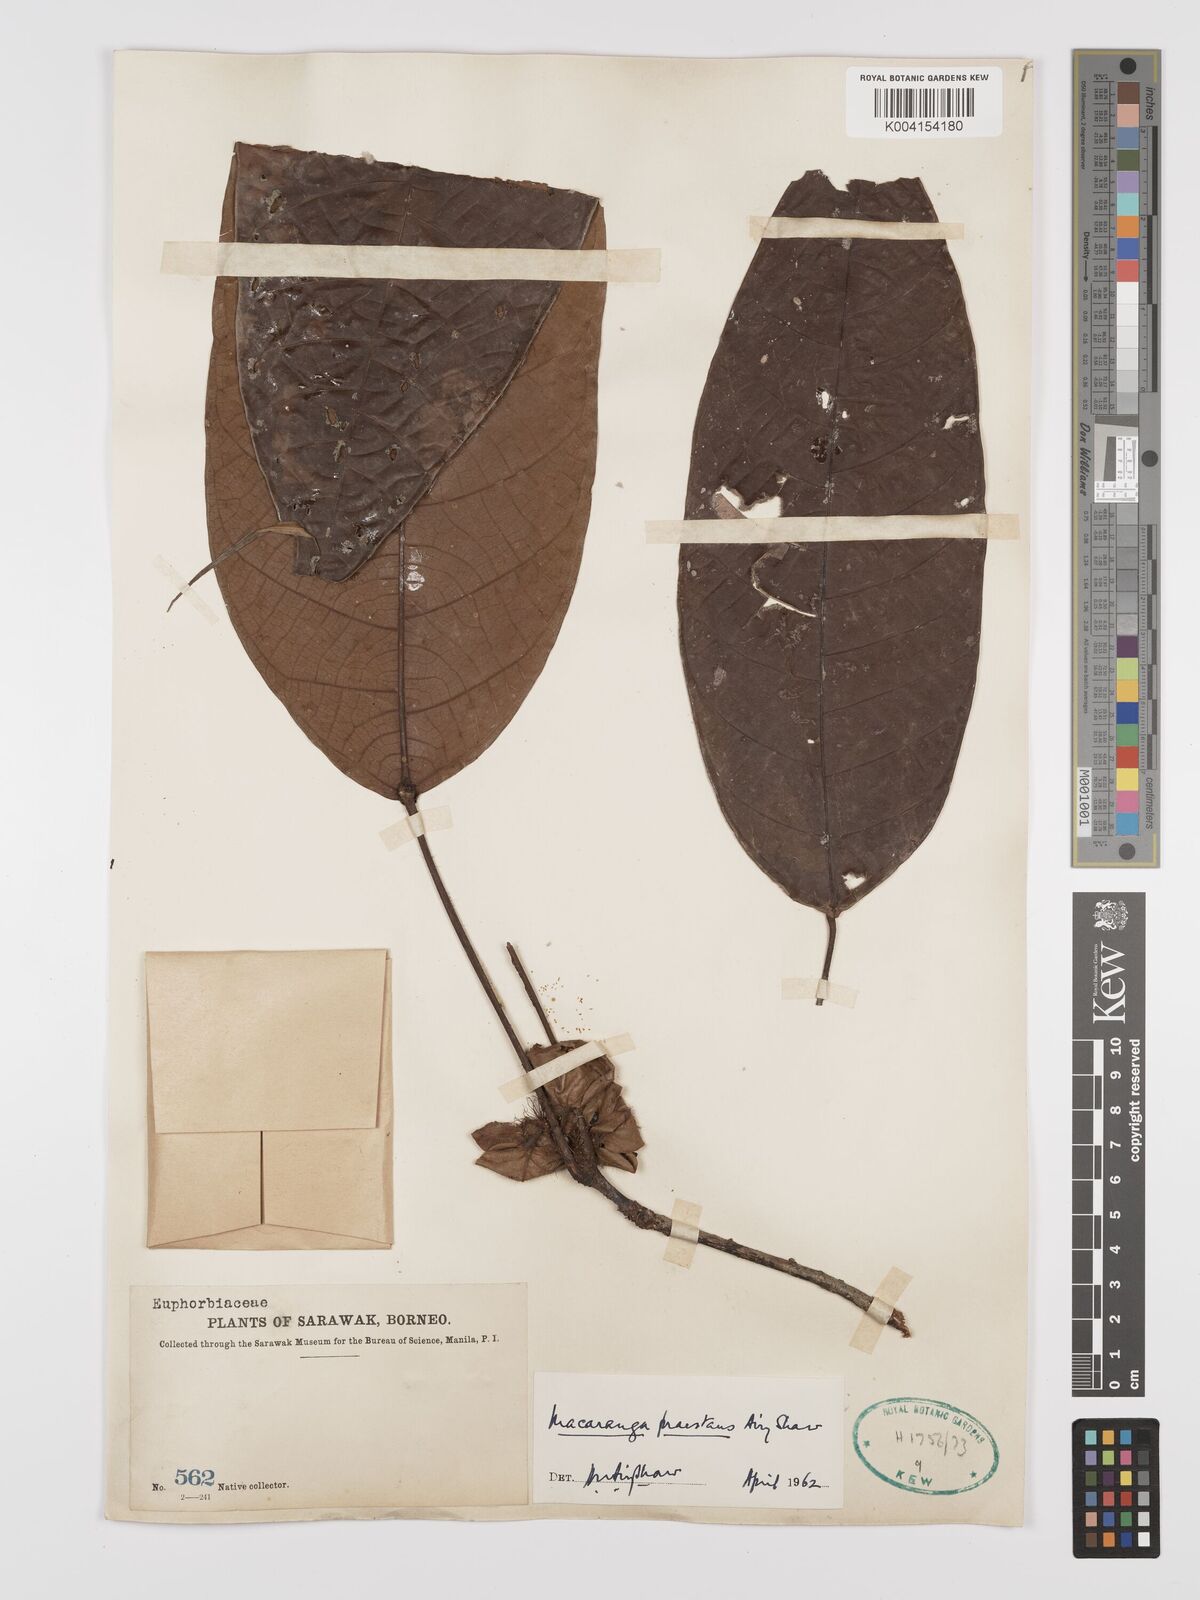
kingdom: Plantae
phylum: Tracheophyta
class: Magnoliopsida
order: Malpighiales
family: Euphorbiaceae
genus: Macaranga
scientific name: Macaranga praestans
